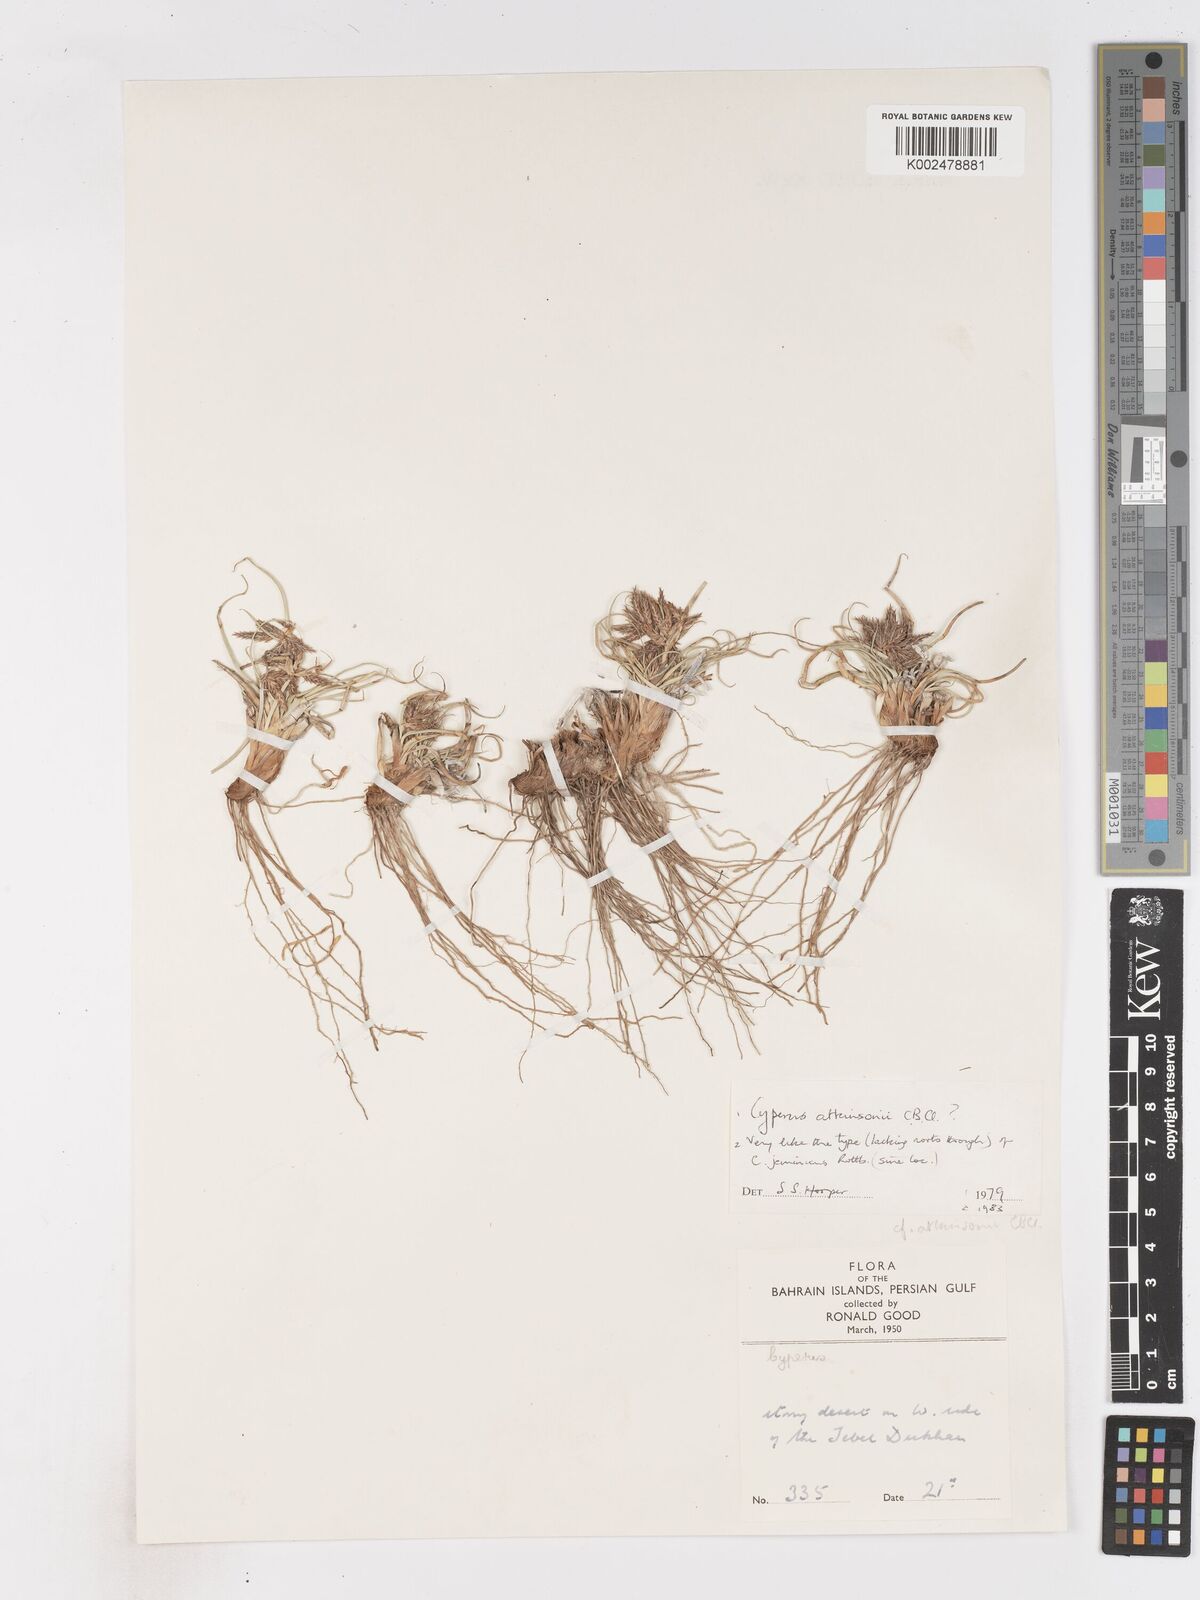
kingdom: Plantae
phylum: Tracheophyta
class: Liliopsida
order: Poales
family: Cyperaceae
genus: Cyperus
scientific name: Cyperus jeminicus
